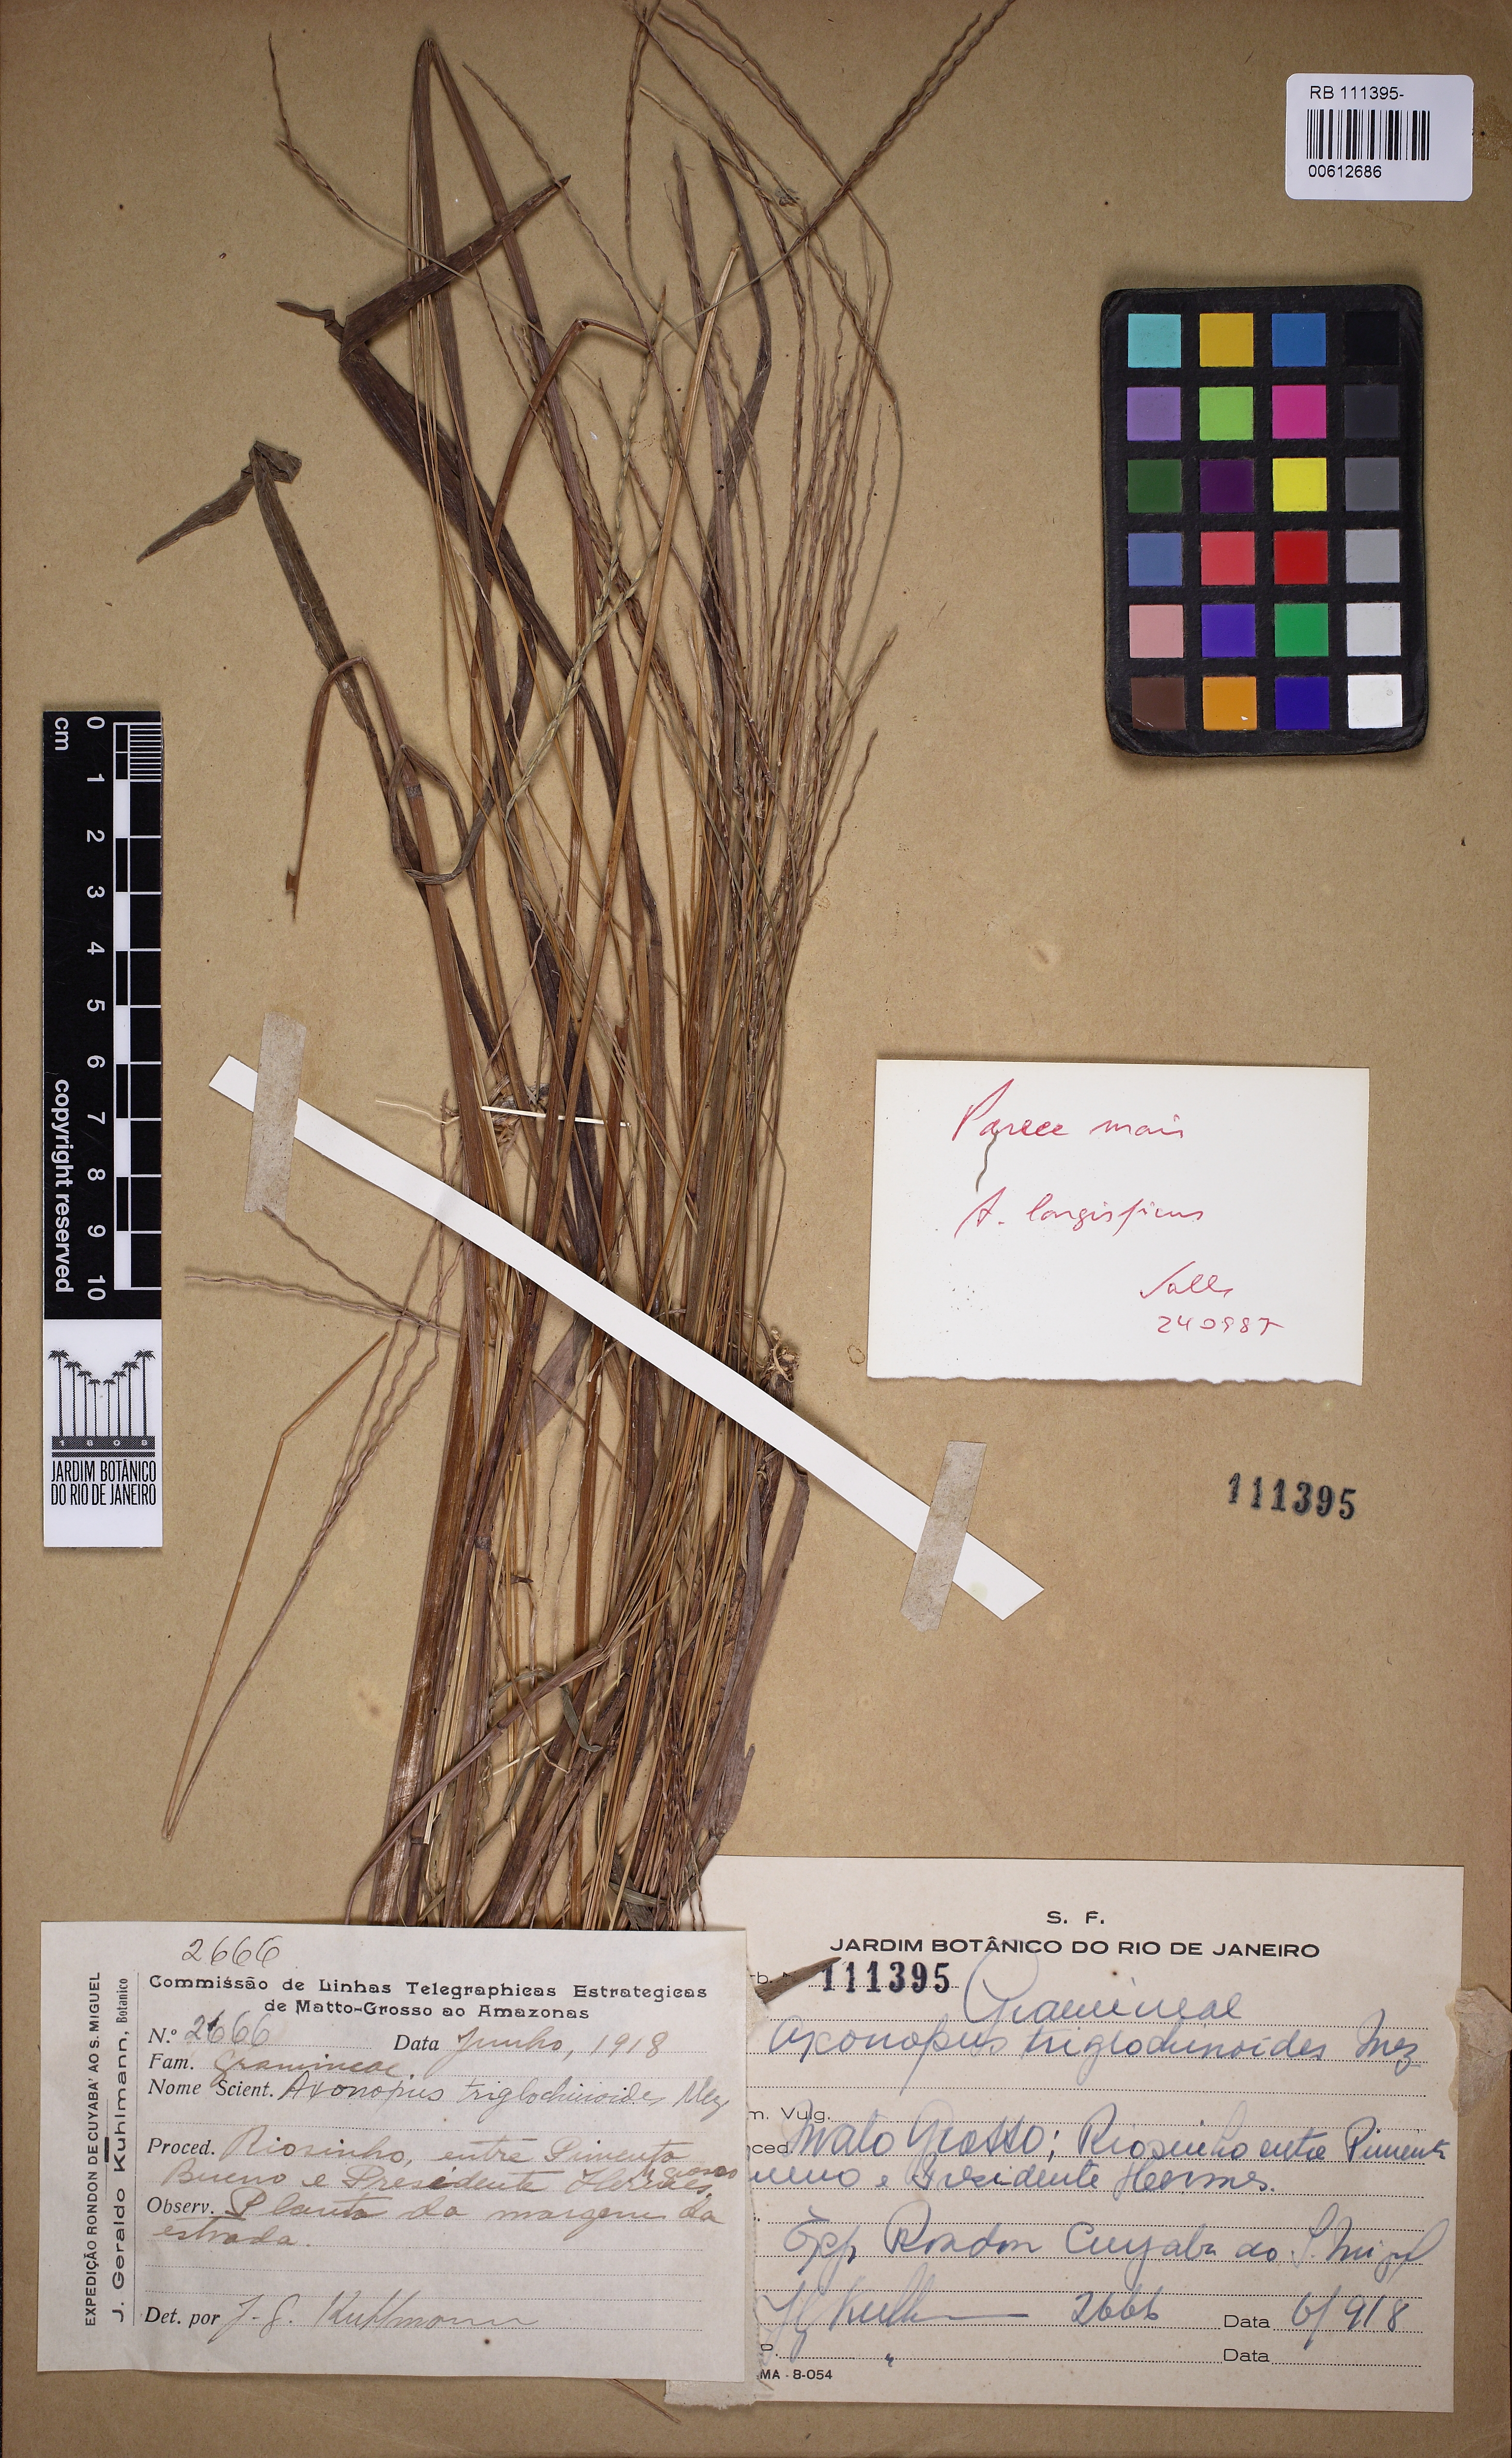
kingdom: Plantae
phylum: Tracheophyta
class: Liliopsida
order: Poales
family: Poaceae
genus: Axonopus
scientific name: Axonopus triglochinoides
